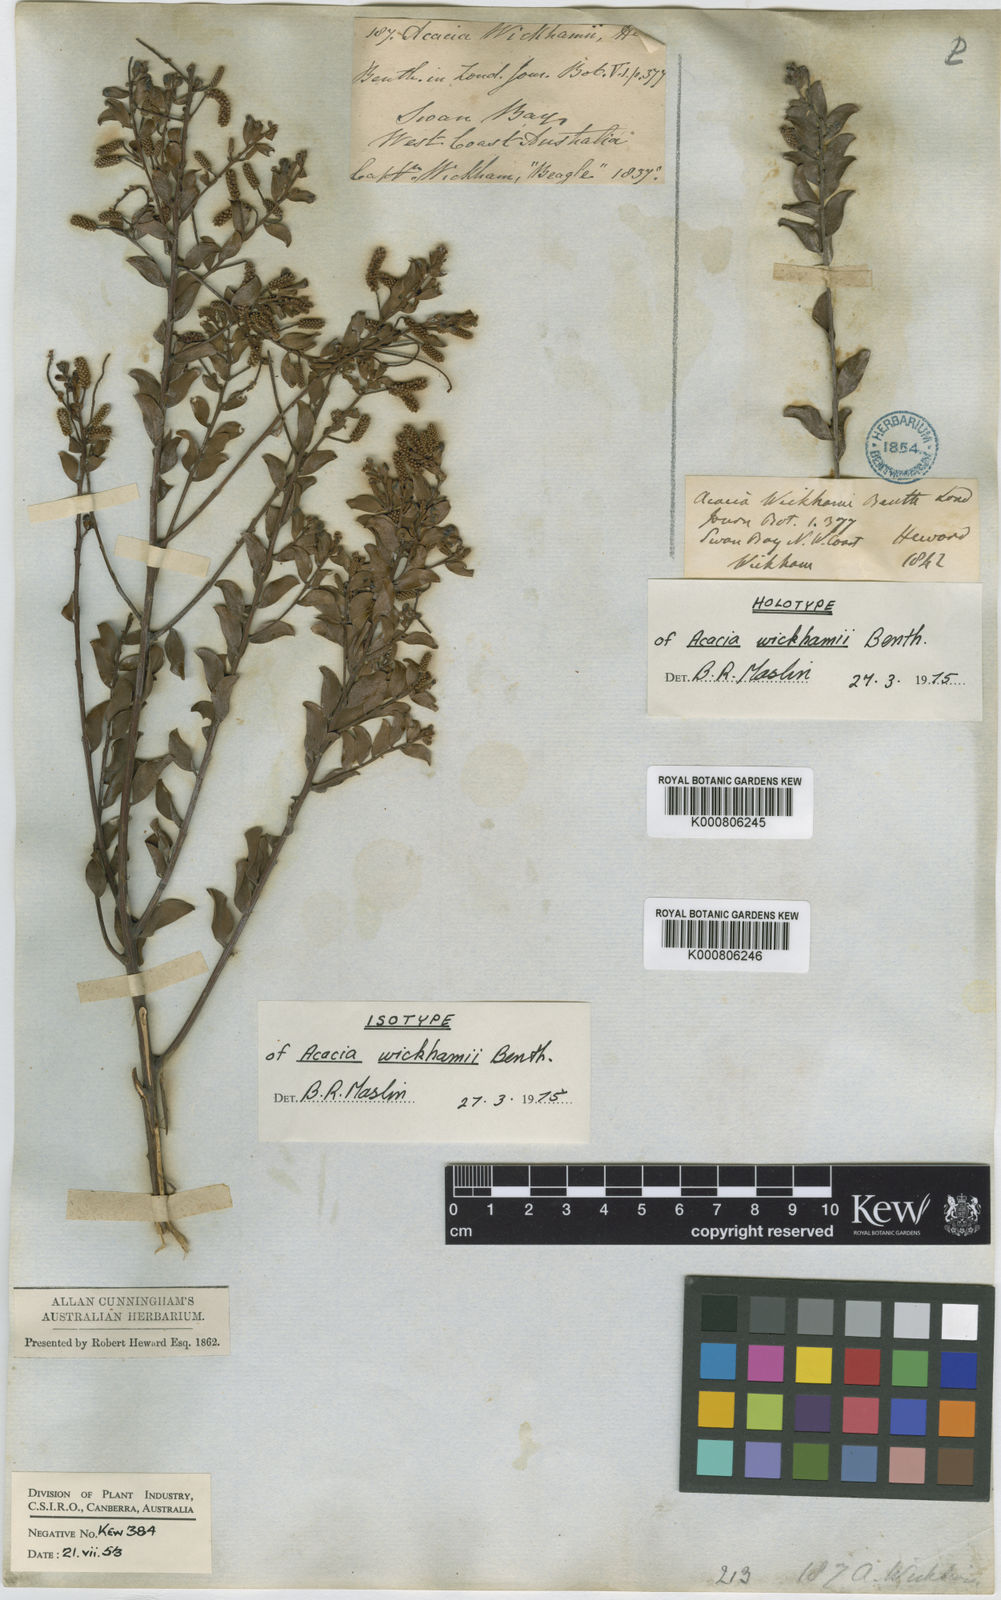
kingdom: Plantae
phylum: Tracheophyta
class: Magnoliopsida
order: Fabales
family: Fabaceae
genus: Acacia
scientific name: Acacia wickhamii
